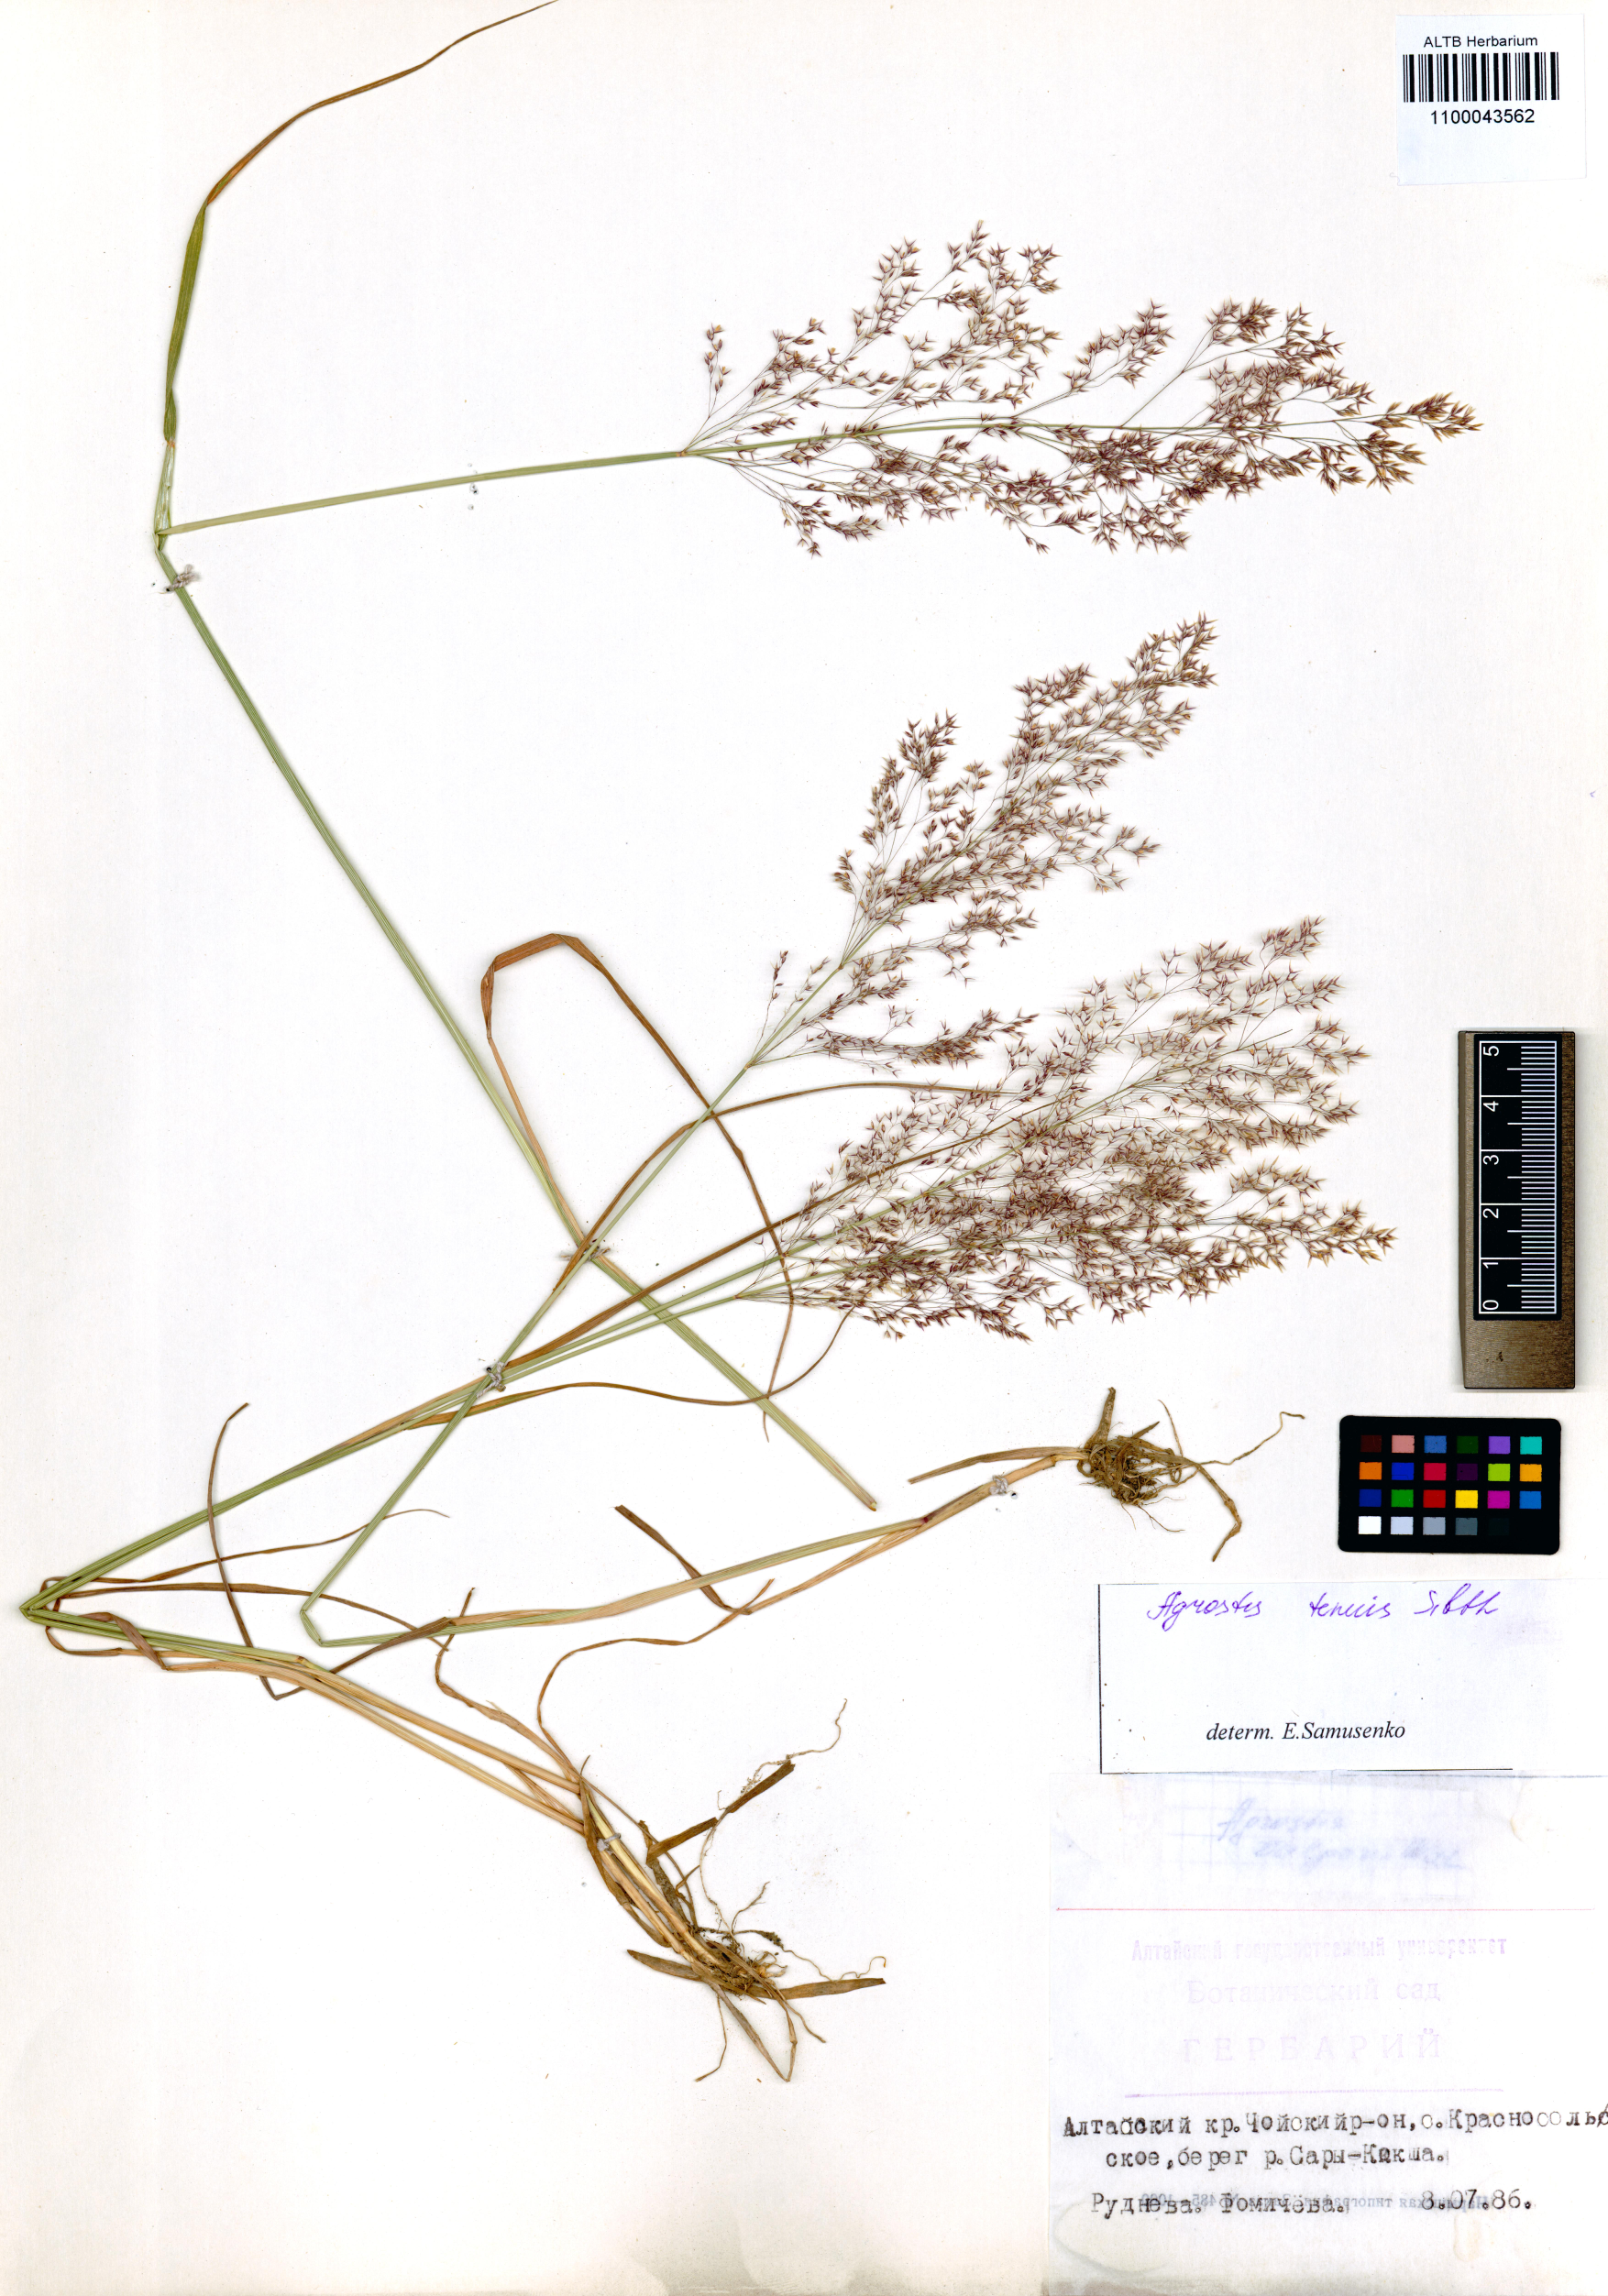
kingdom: Plantae
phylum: Tracheophyta
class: Liliopsida
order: Poales
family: Poaceae
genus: Agrostis
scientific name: Agrostis capillaris
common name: Colonial bentgrass
